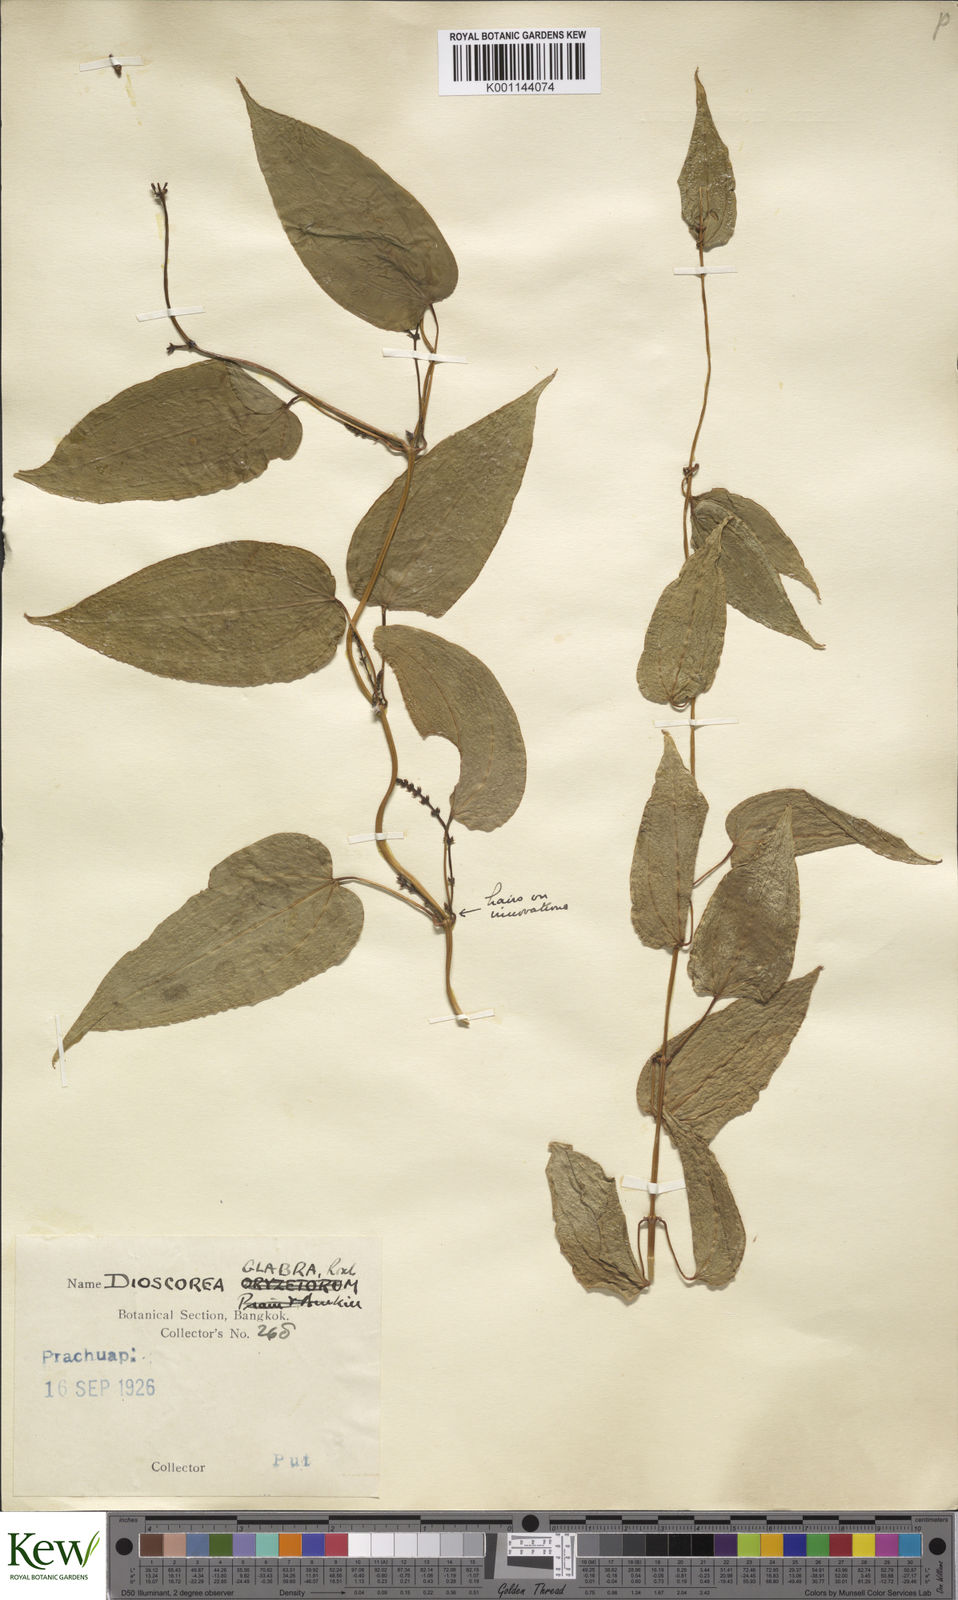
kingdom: Plantae
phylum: Tracheophyta
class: Liliopsida
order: Dioscoreales
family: Dioscoreaceae
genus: Dioscorea
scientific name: Dioscorea glabra
